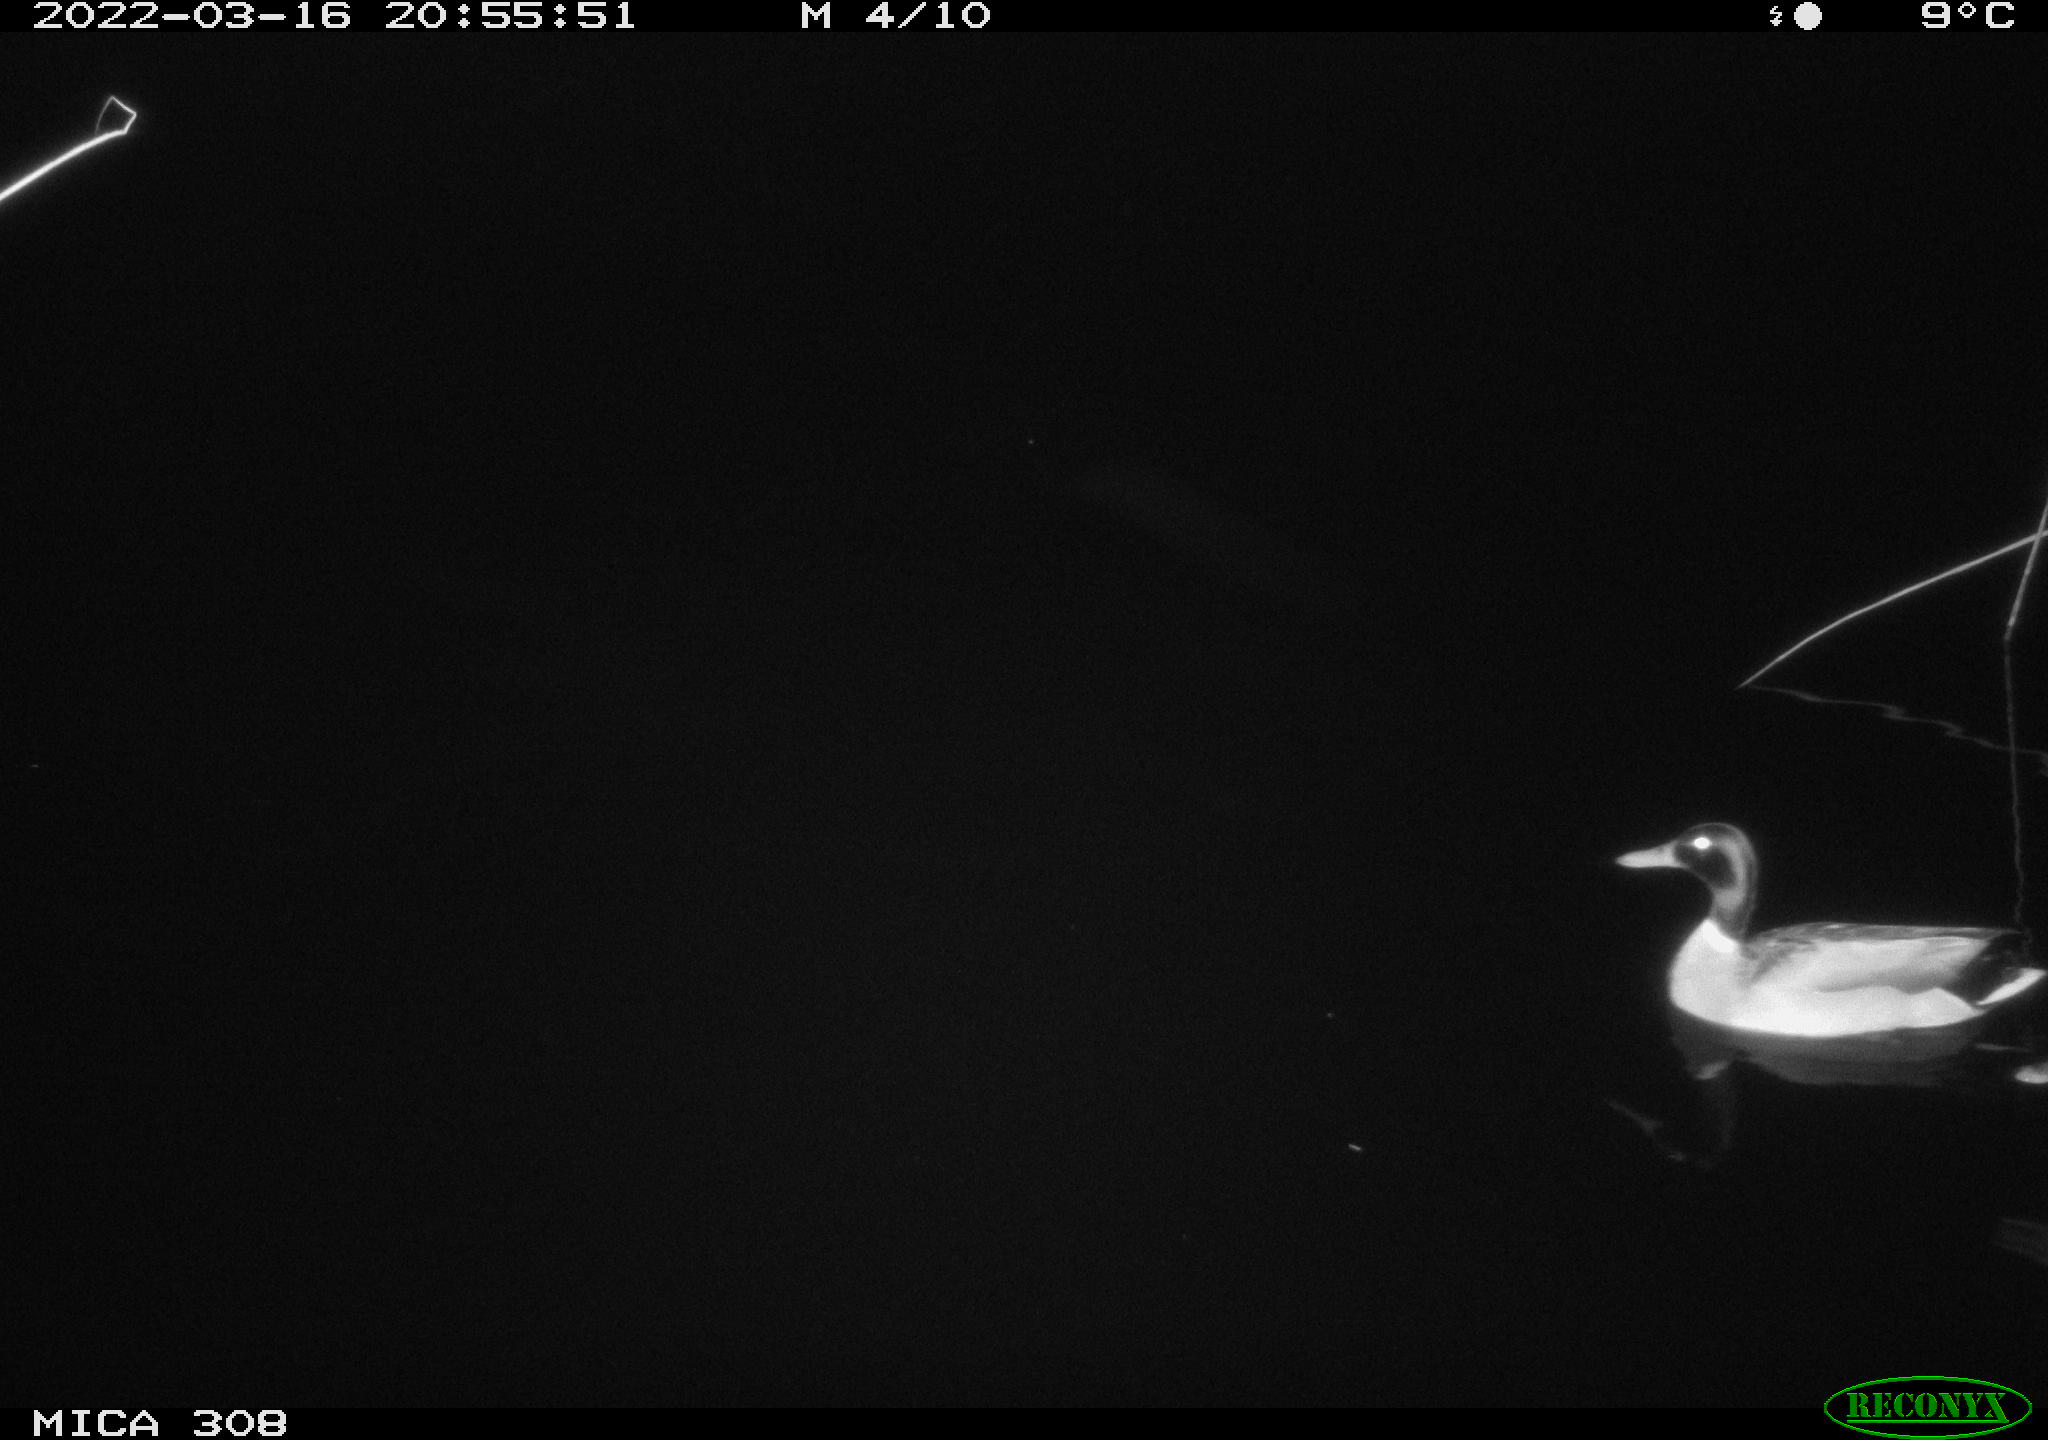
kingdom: Animalia
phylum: Chordata
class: Aves
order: Anseriformes
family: Anatidae
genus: Anas
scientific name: Anas platyrhynchos
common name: Mallard
